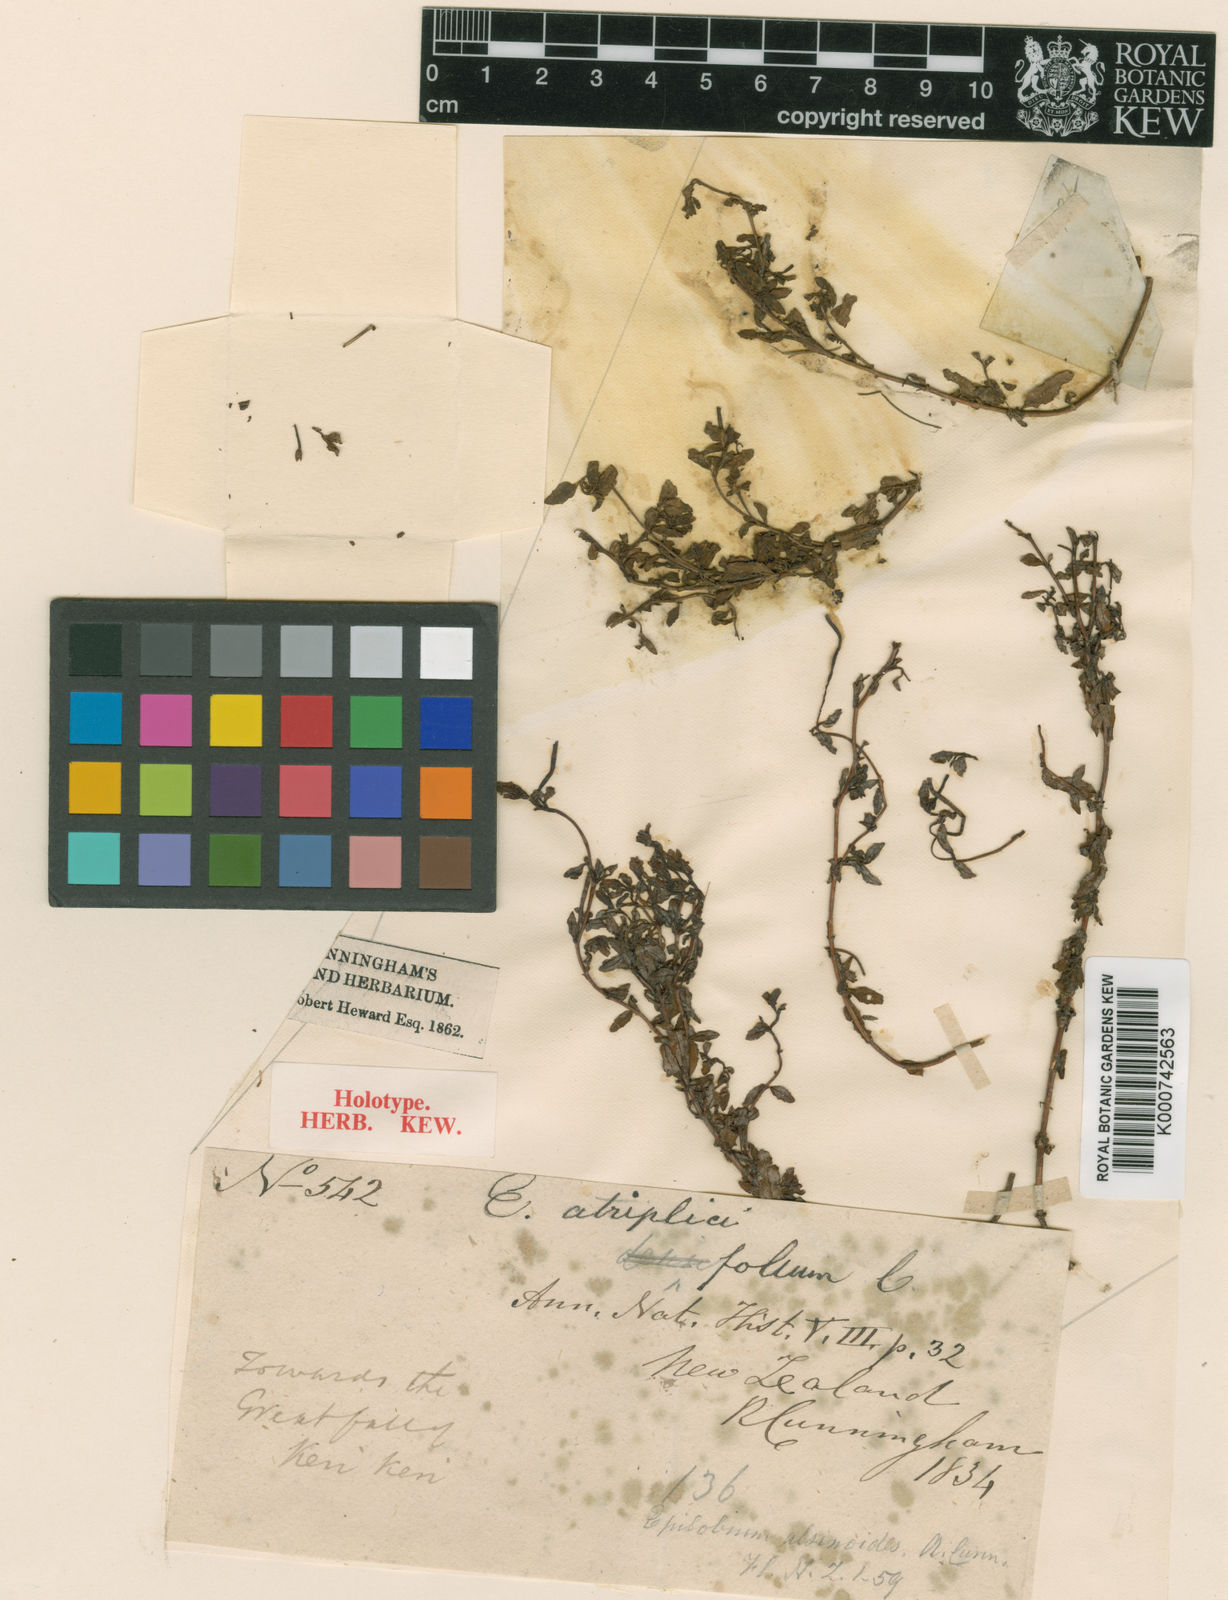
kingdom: Plantae
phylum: Tracheophyta
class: Magnoliopsida
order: Myrtales
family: Onagraceae
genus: Epilobium
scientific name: Epilobium alsinoides
